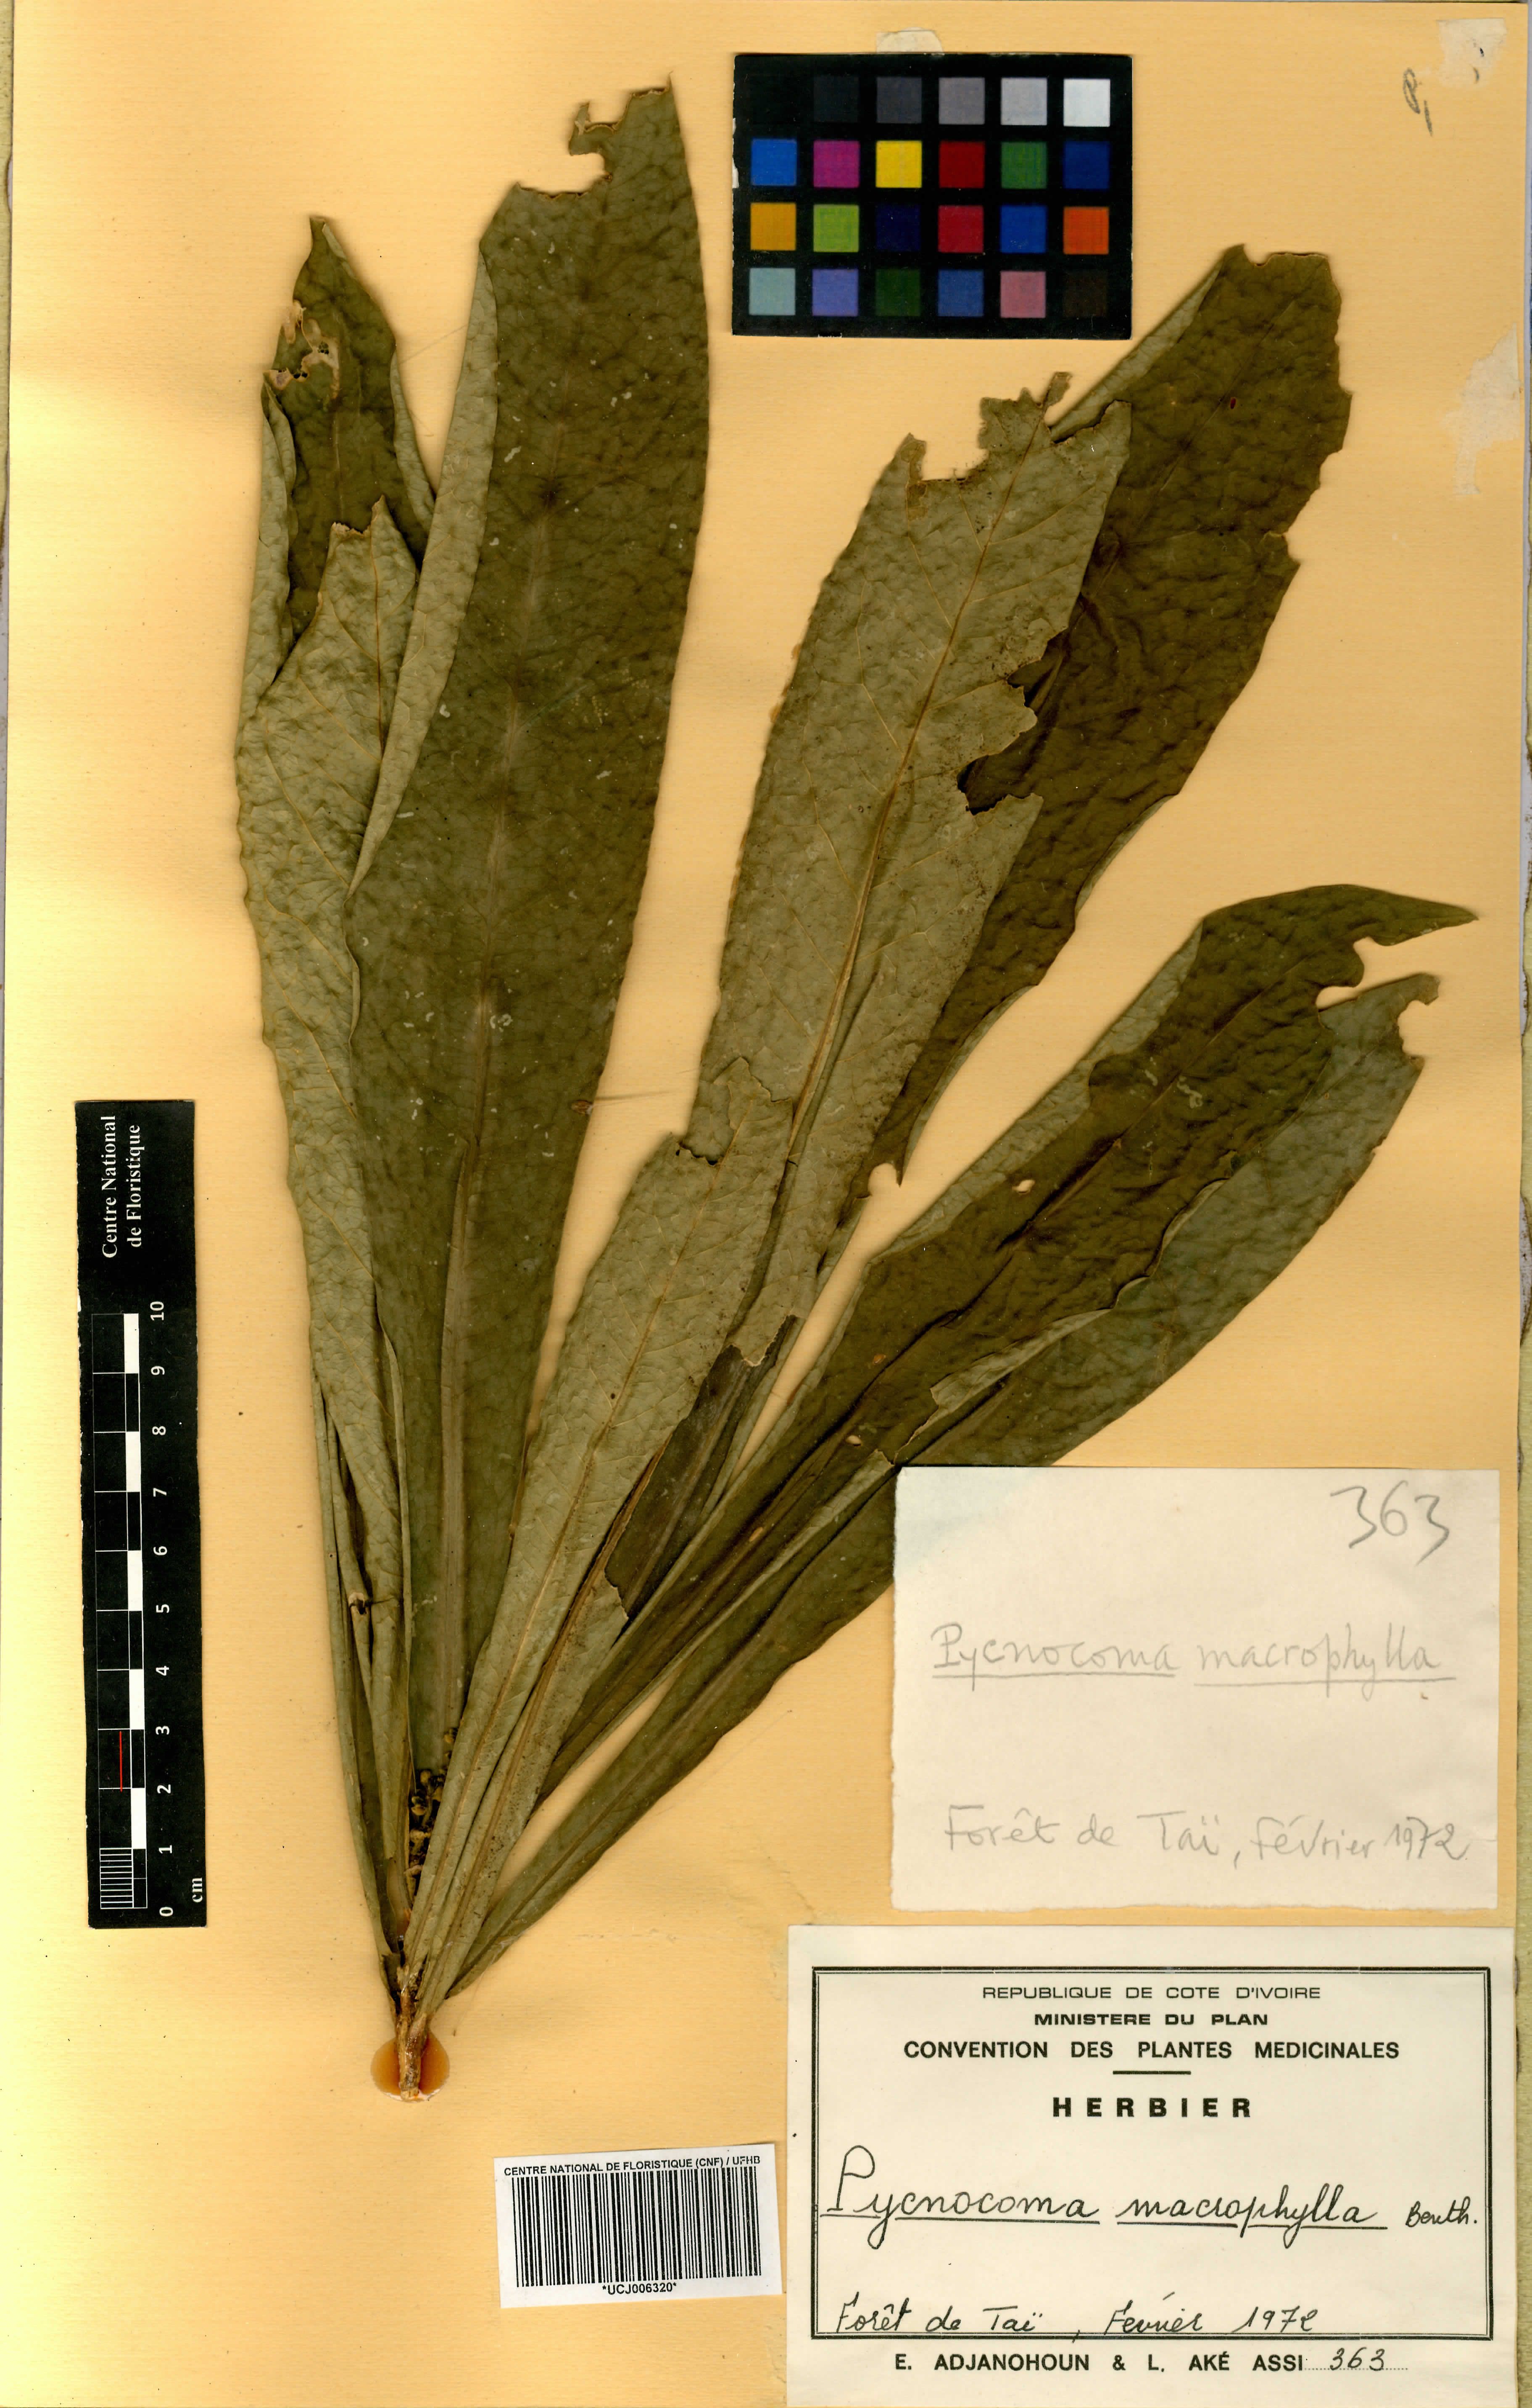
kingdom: Plantae
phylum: Tracheophyta
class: Magnoliopsida
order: Malpighiales
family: Euphorbiaceae
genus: Pycnocoma
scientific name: Pycnocoma macrophylla
